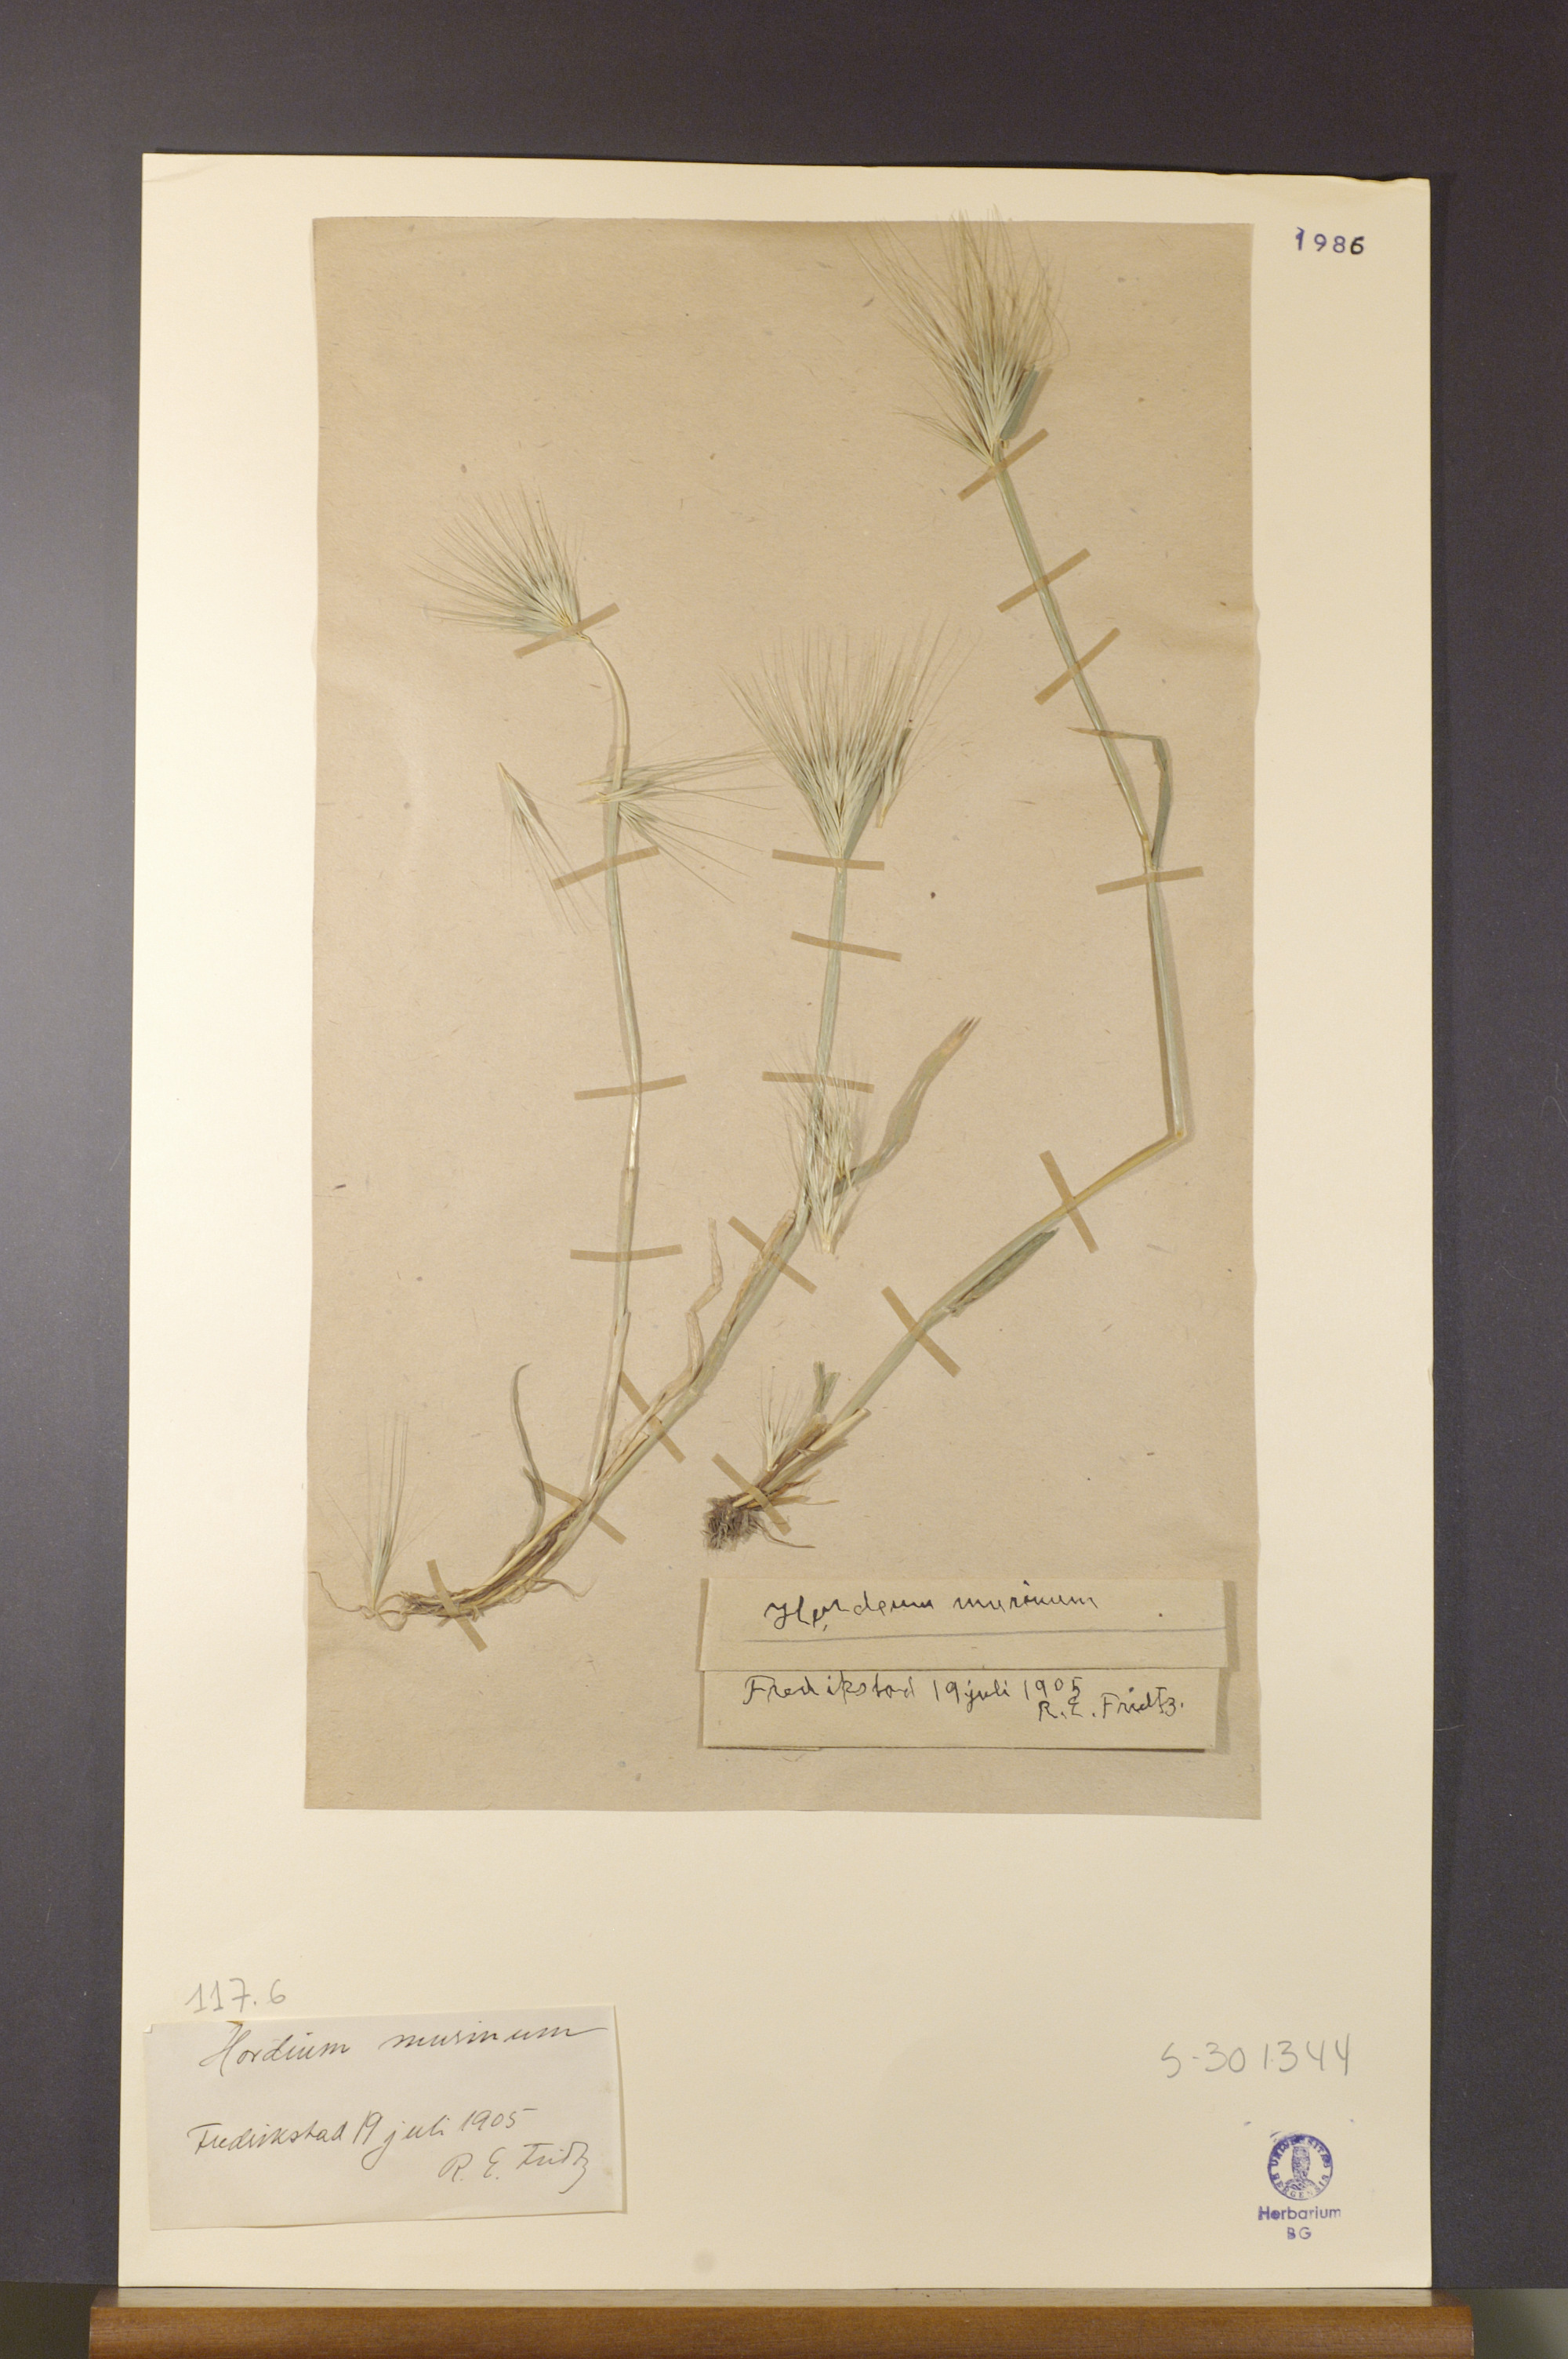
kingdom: Plantae
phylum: Tracheophyta
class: Liliopsida
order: Poales
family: Poaceae
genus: Hordeum
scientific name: Hordeum murinum
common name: Wall barley
